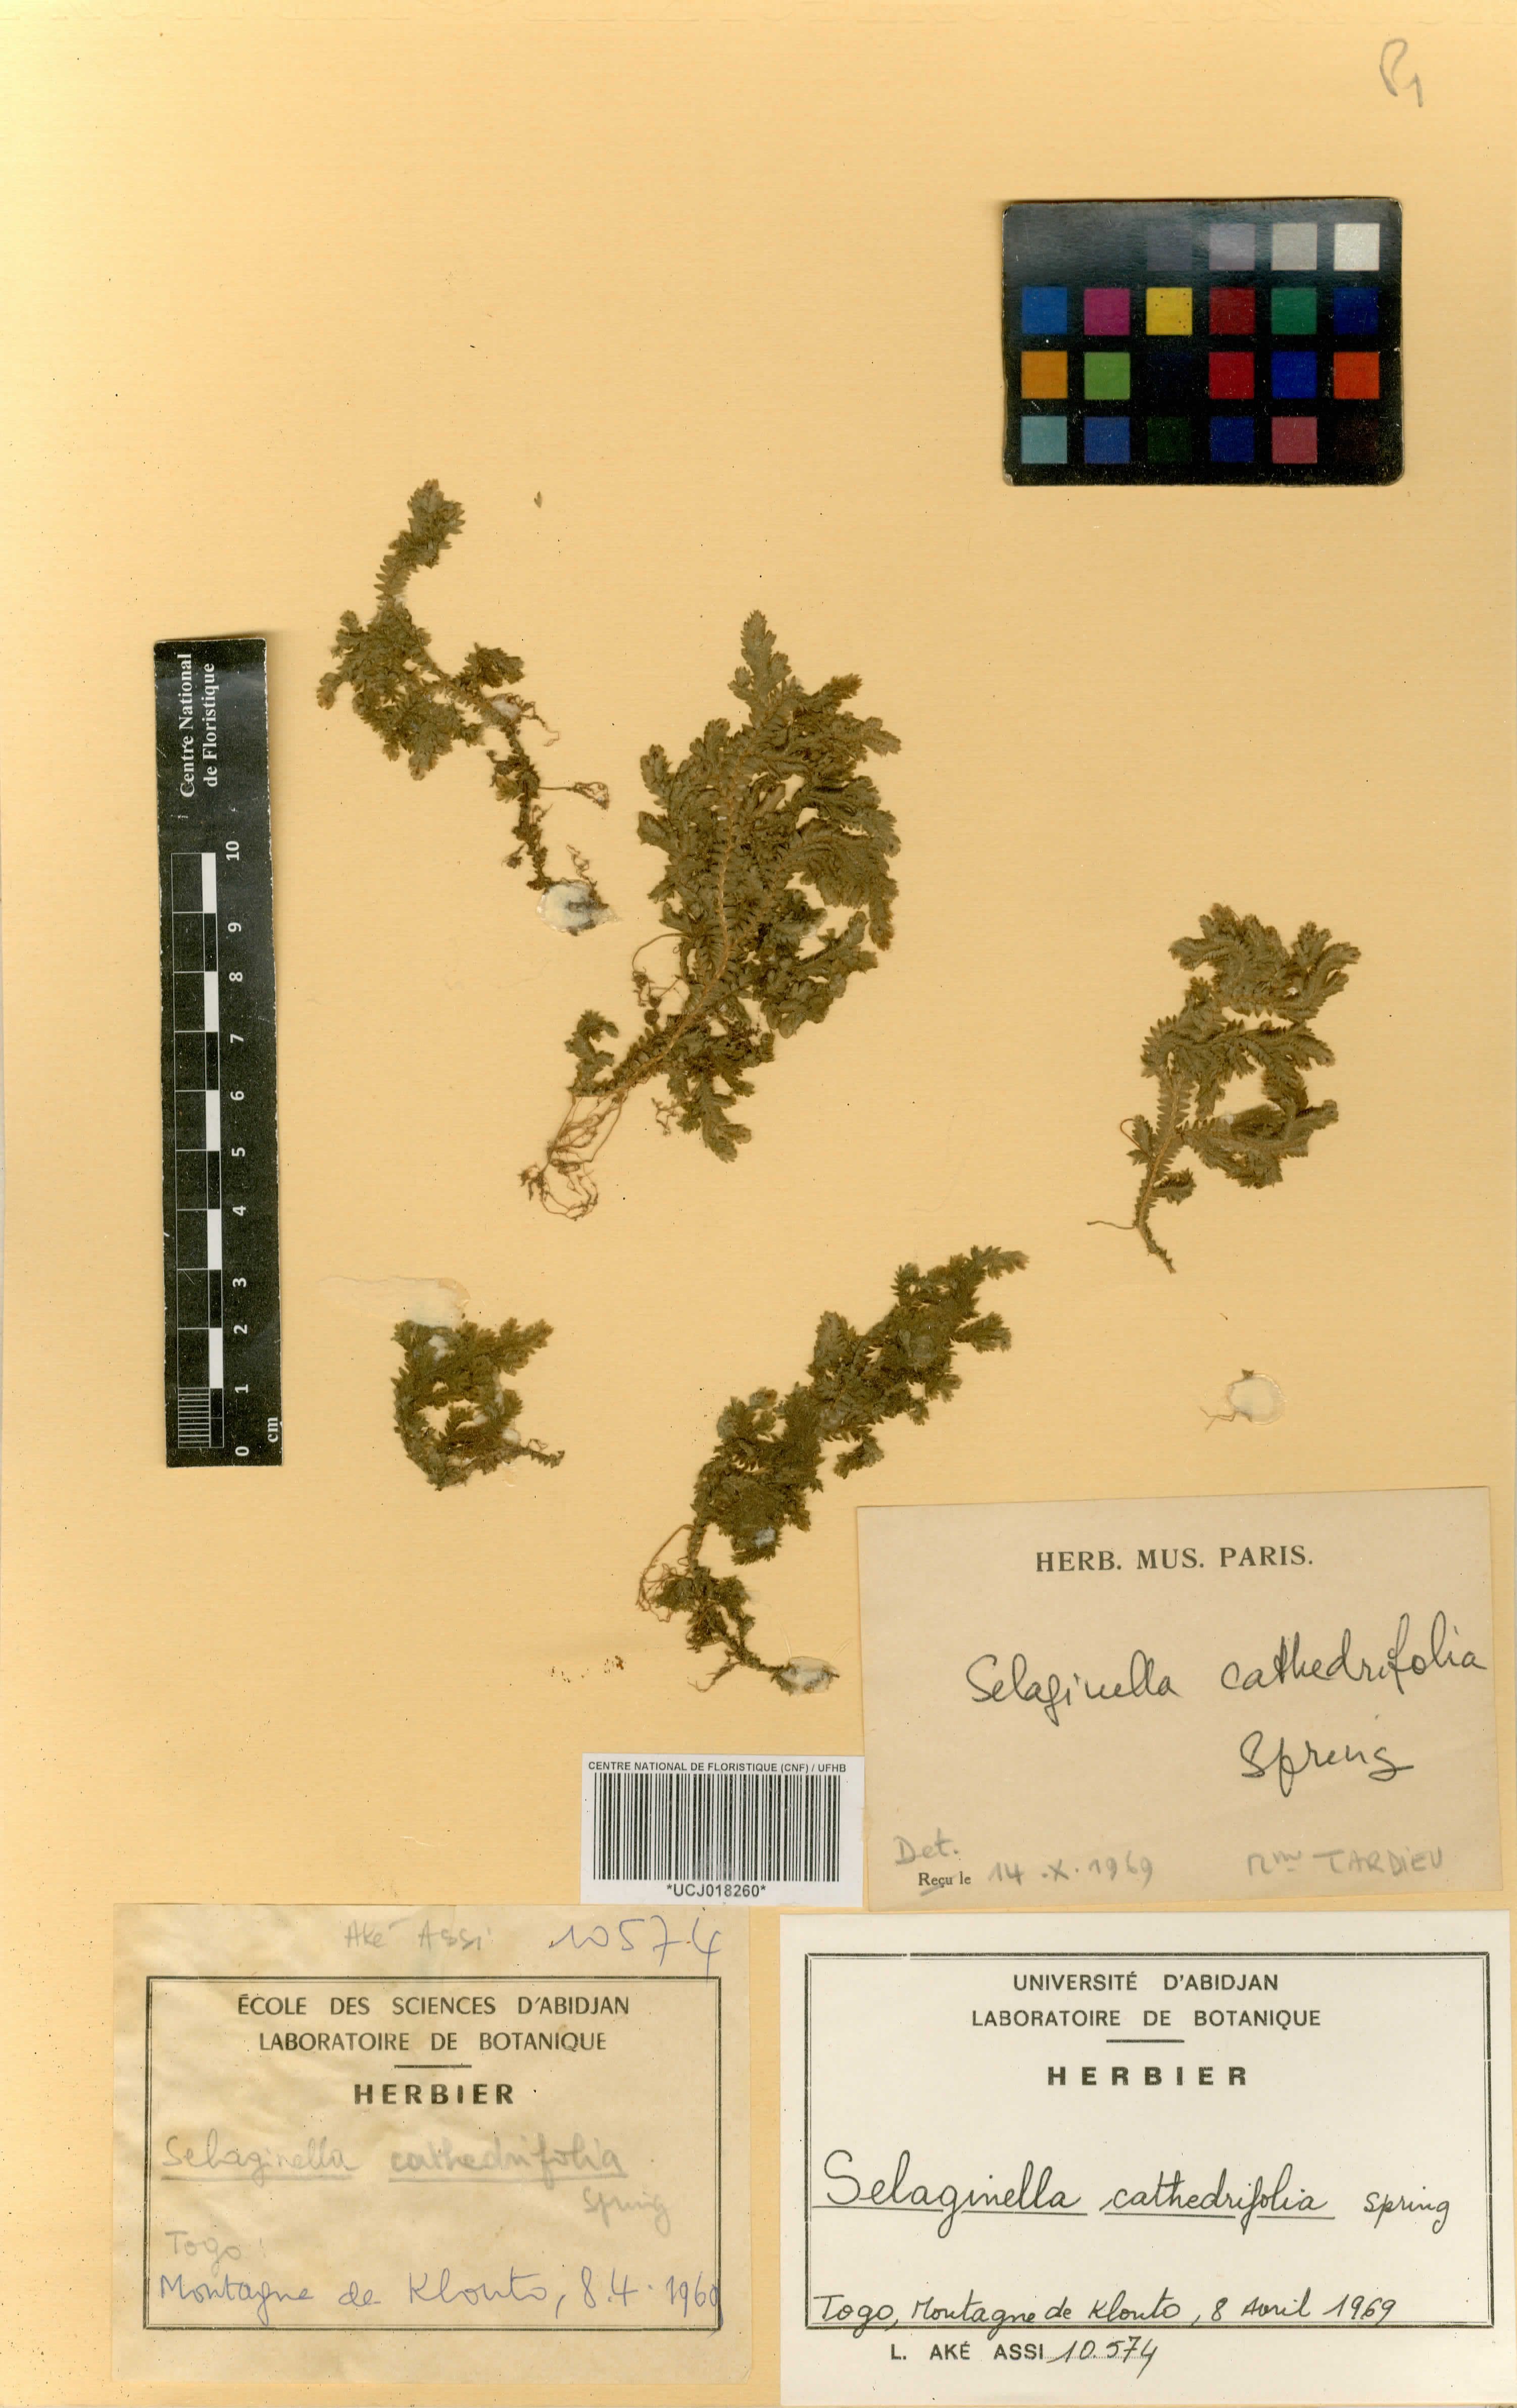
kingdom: Plantae
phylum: Tracheophyta
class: Lycopodiopsida
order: Selaginellales
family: Selaginellaceae
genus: Selaginella
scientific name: Selaginella cathedrifolia
